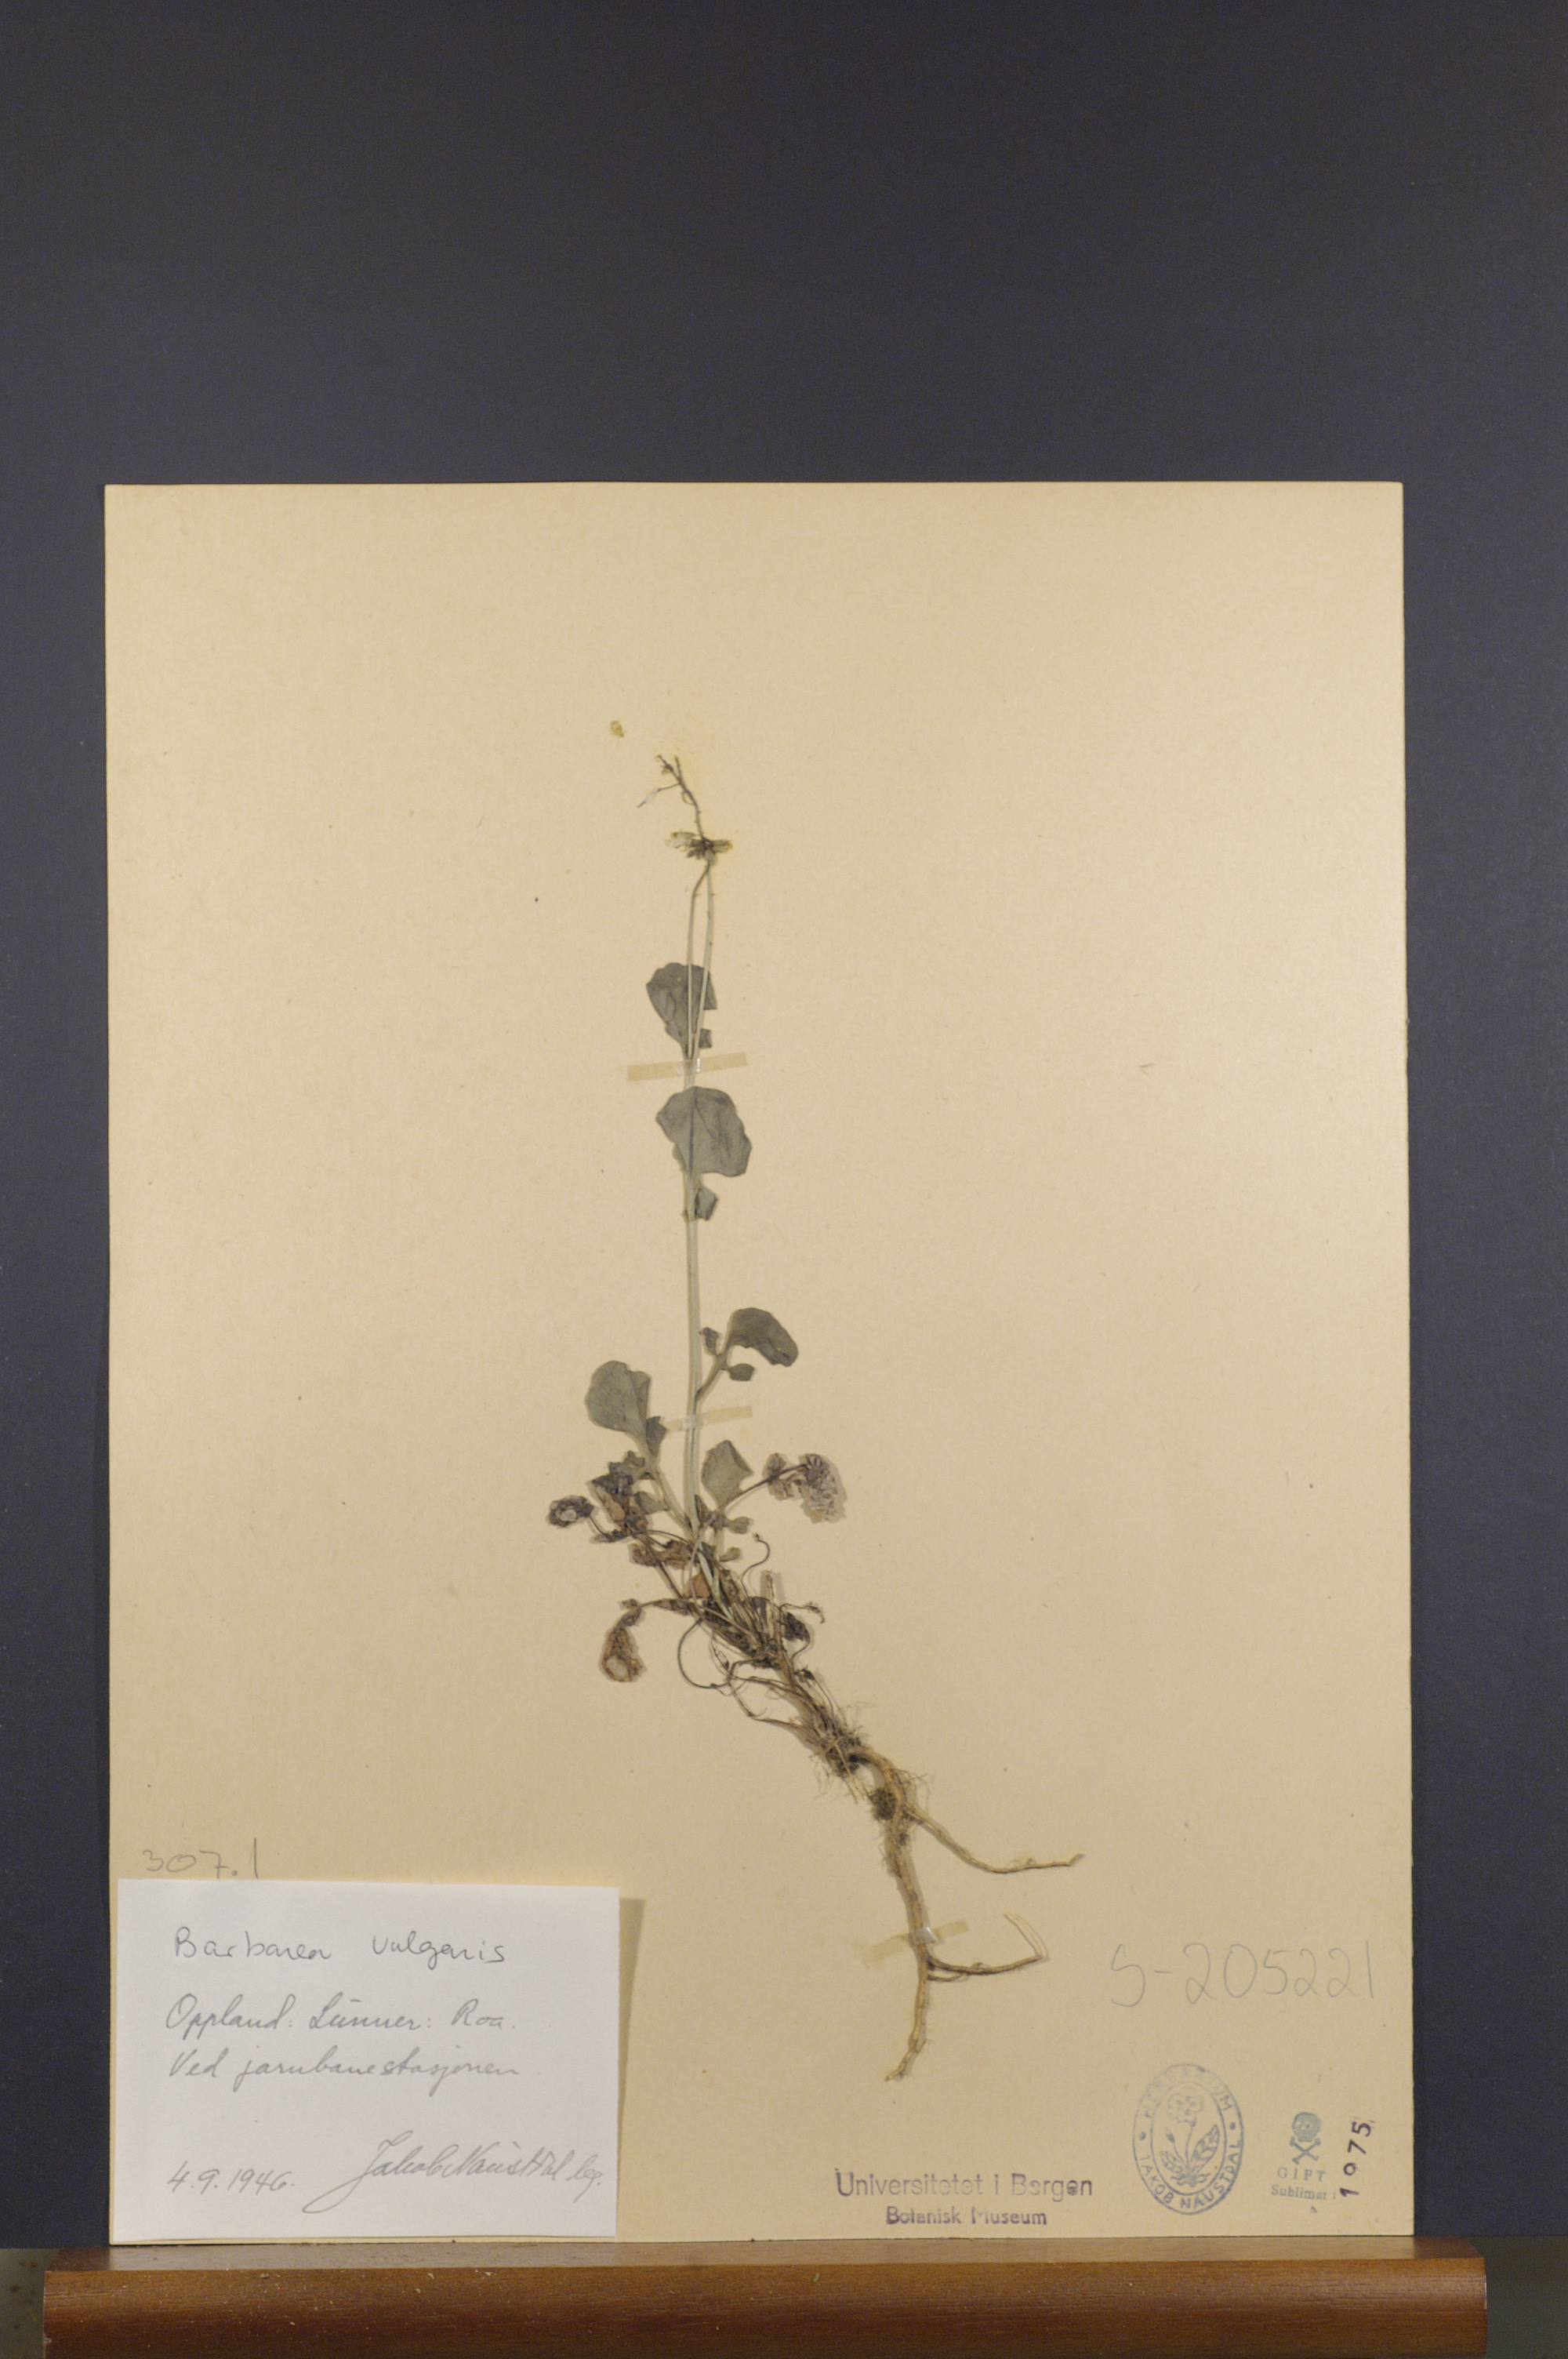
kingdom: Plantae
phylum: Tracheophyta
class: Magnoliopsida
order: Brassicales
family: Brassicaceae
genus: Barbarea
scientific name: Barbarea vulgaris
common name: Cressy-greens
